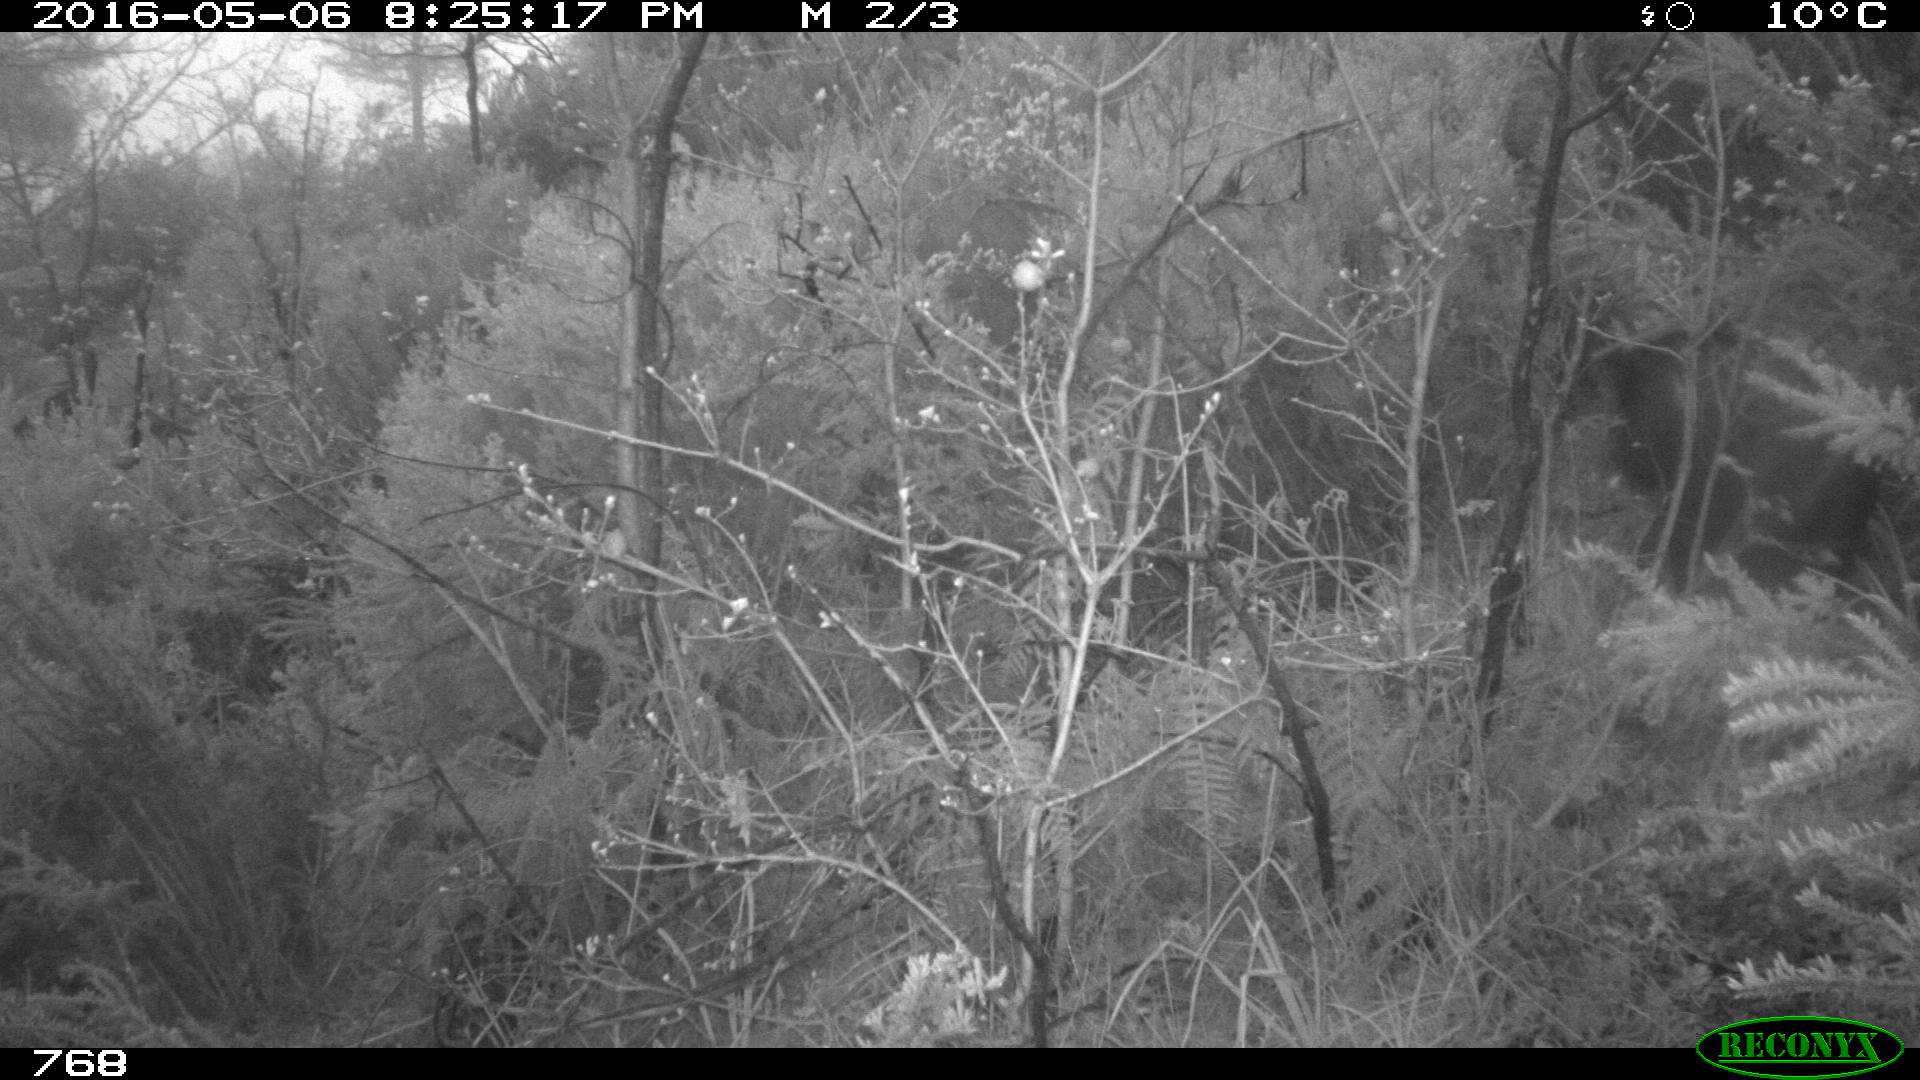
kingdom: Animalia
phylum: Chordata
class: Mammalia
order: Artiodactyla
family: Suidae
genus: Sus
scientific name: Sus scrofa
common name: Wild boar
